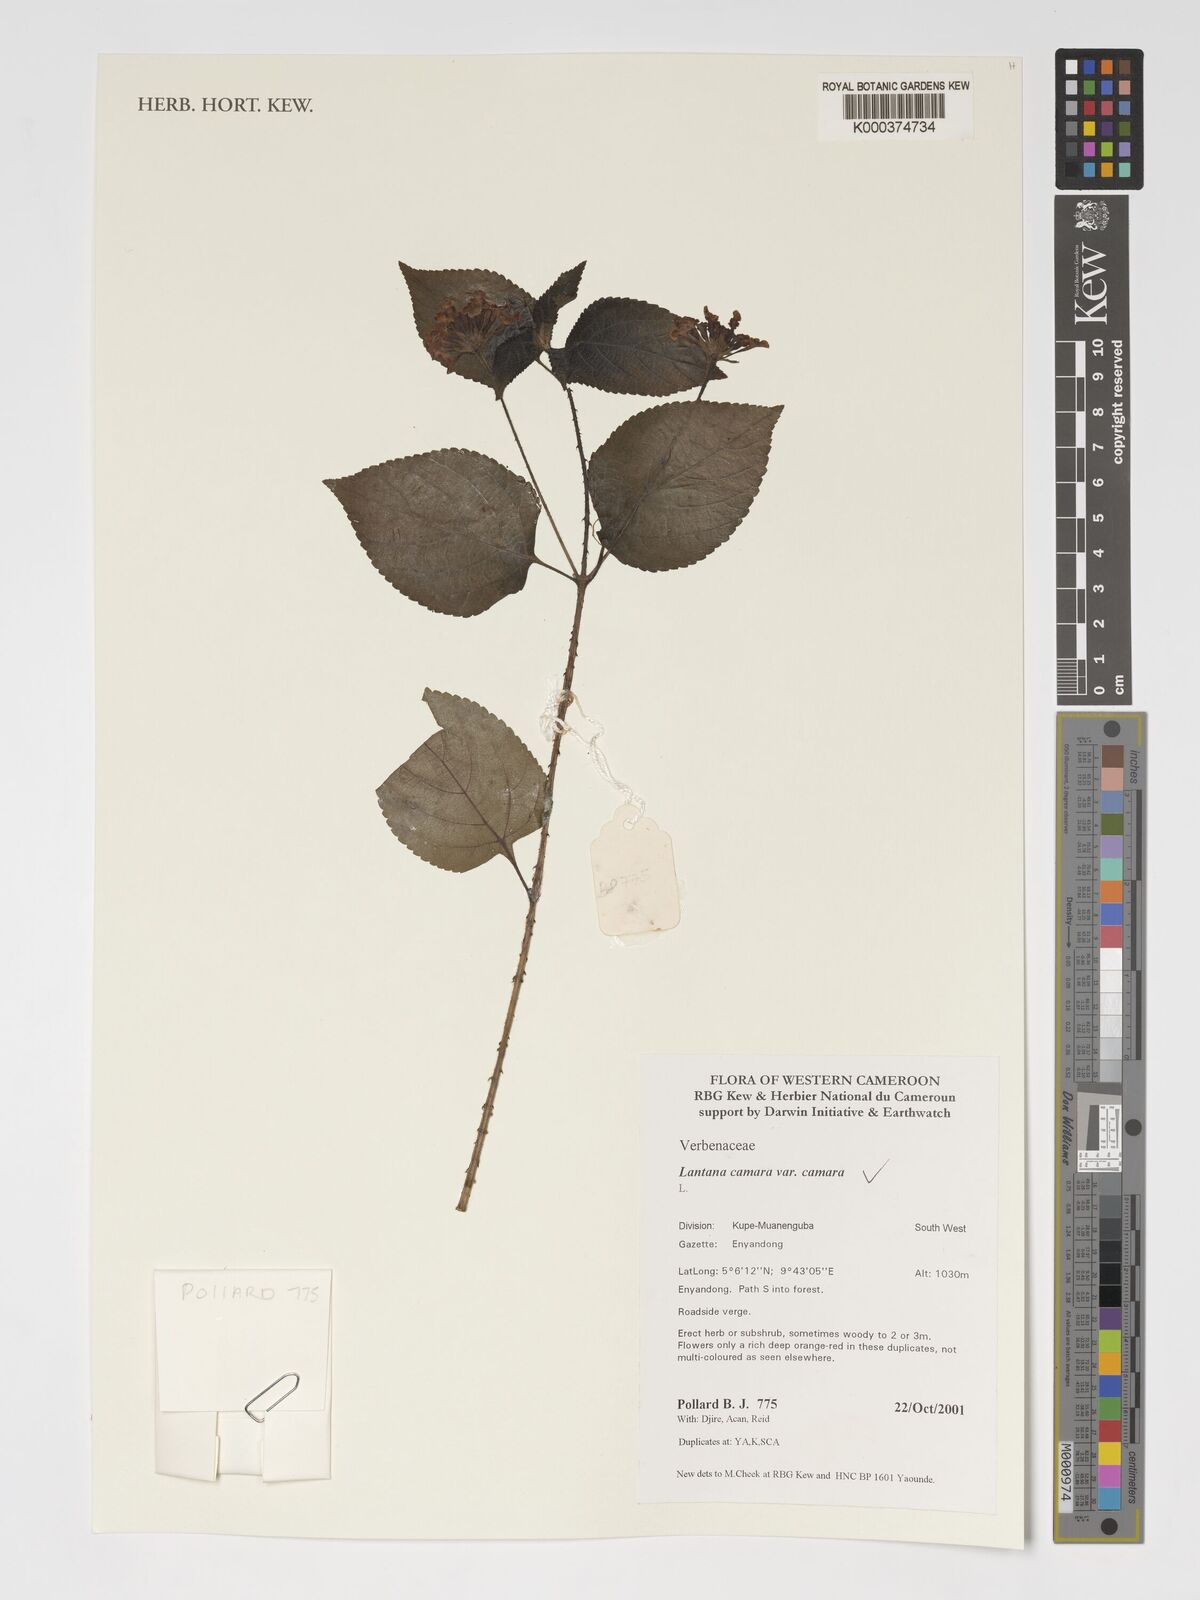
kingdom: Plantae
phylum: Tracheophyta
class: Magnoliopsida
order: Lamiales
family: Verbenaceae
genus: Lantana
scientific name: Lantana camara
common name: Lantana
